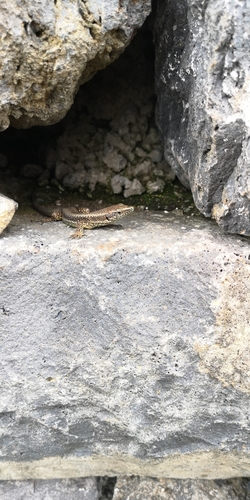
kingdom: Animalia
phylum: Chordata
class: Squamata
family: Lacertidae
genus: Teira
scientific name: Teira dugesii
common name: Madeira lizard
